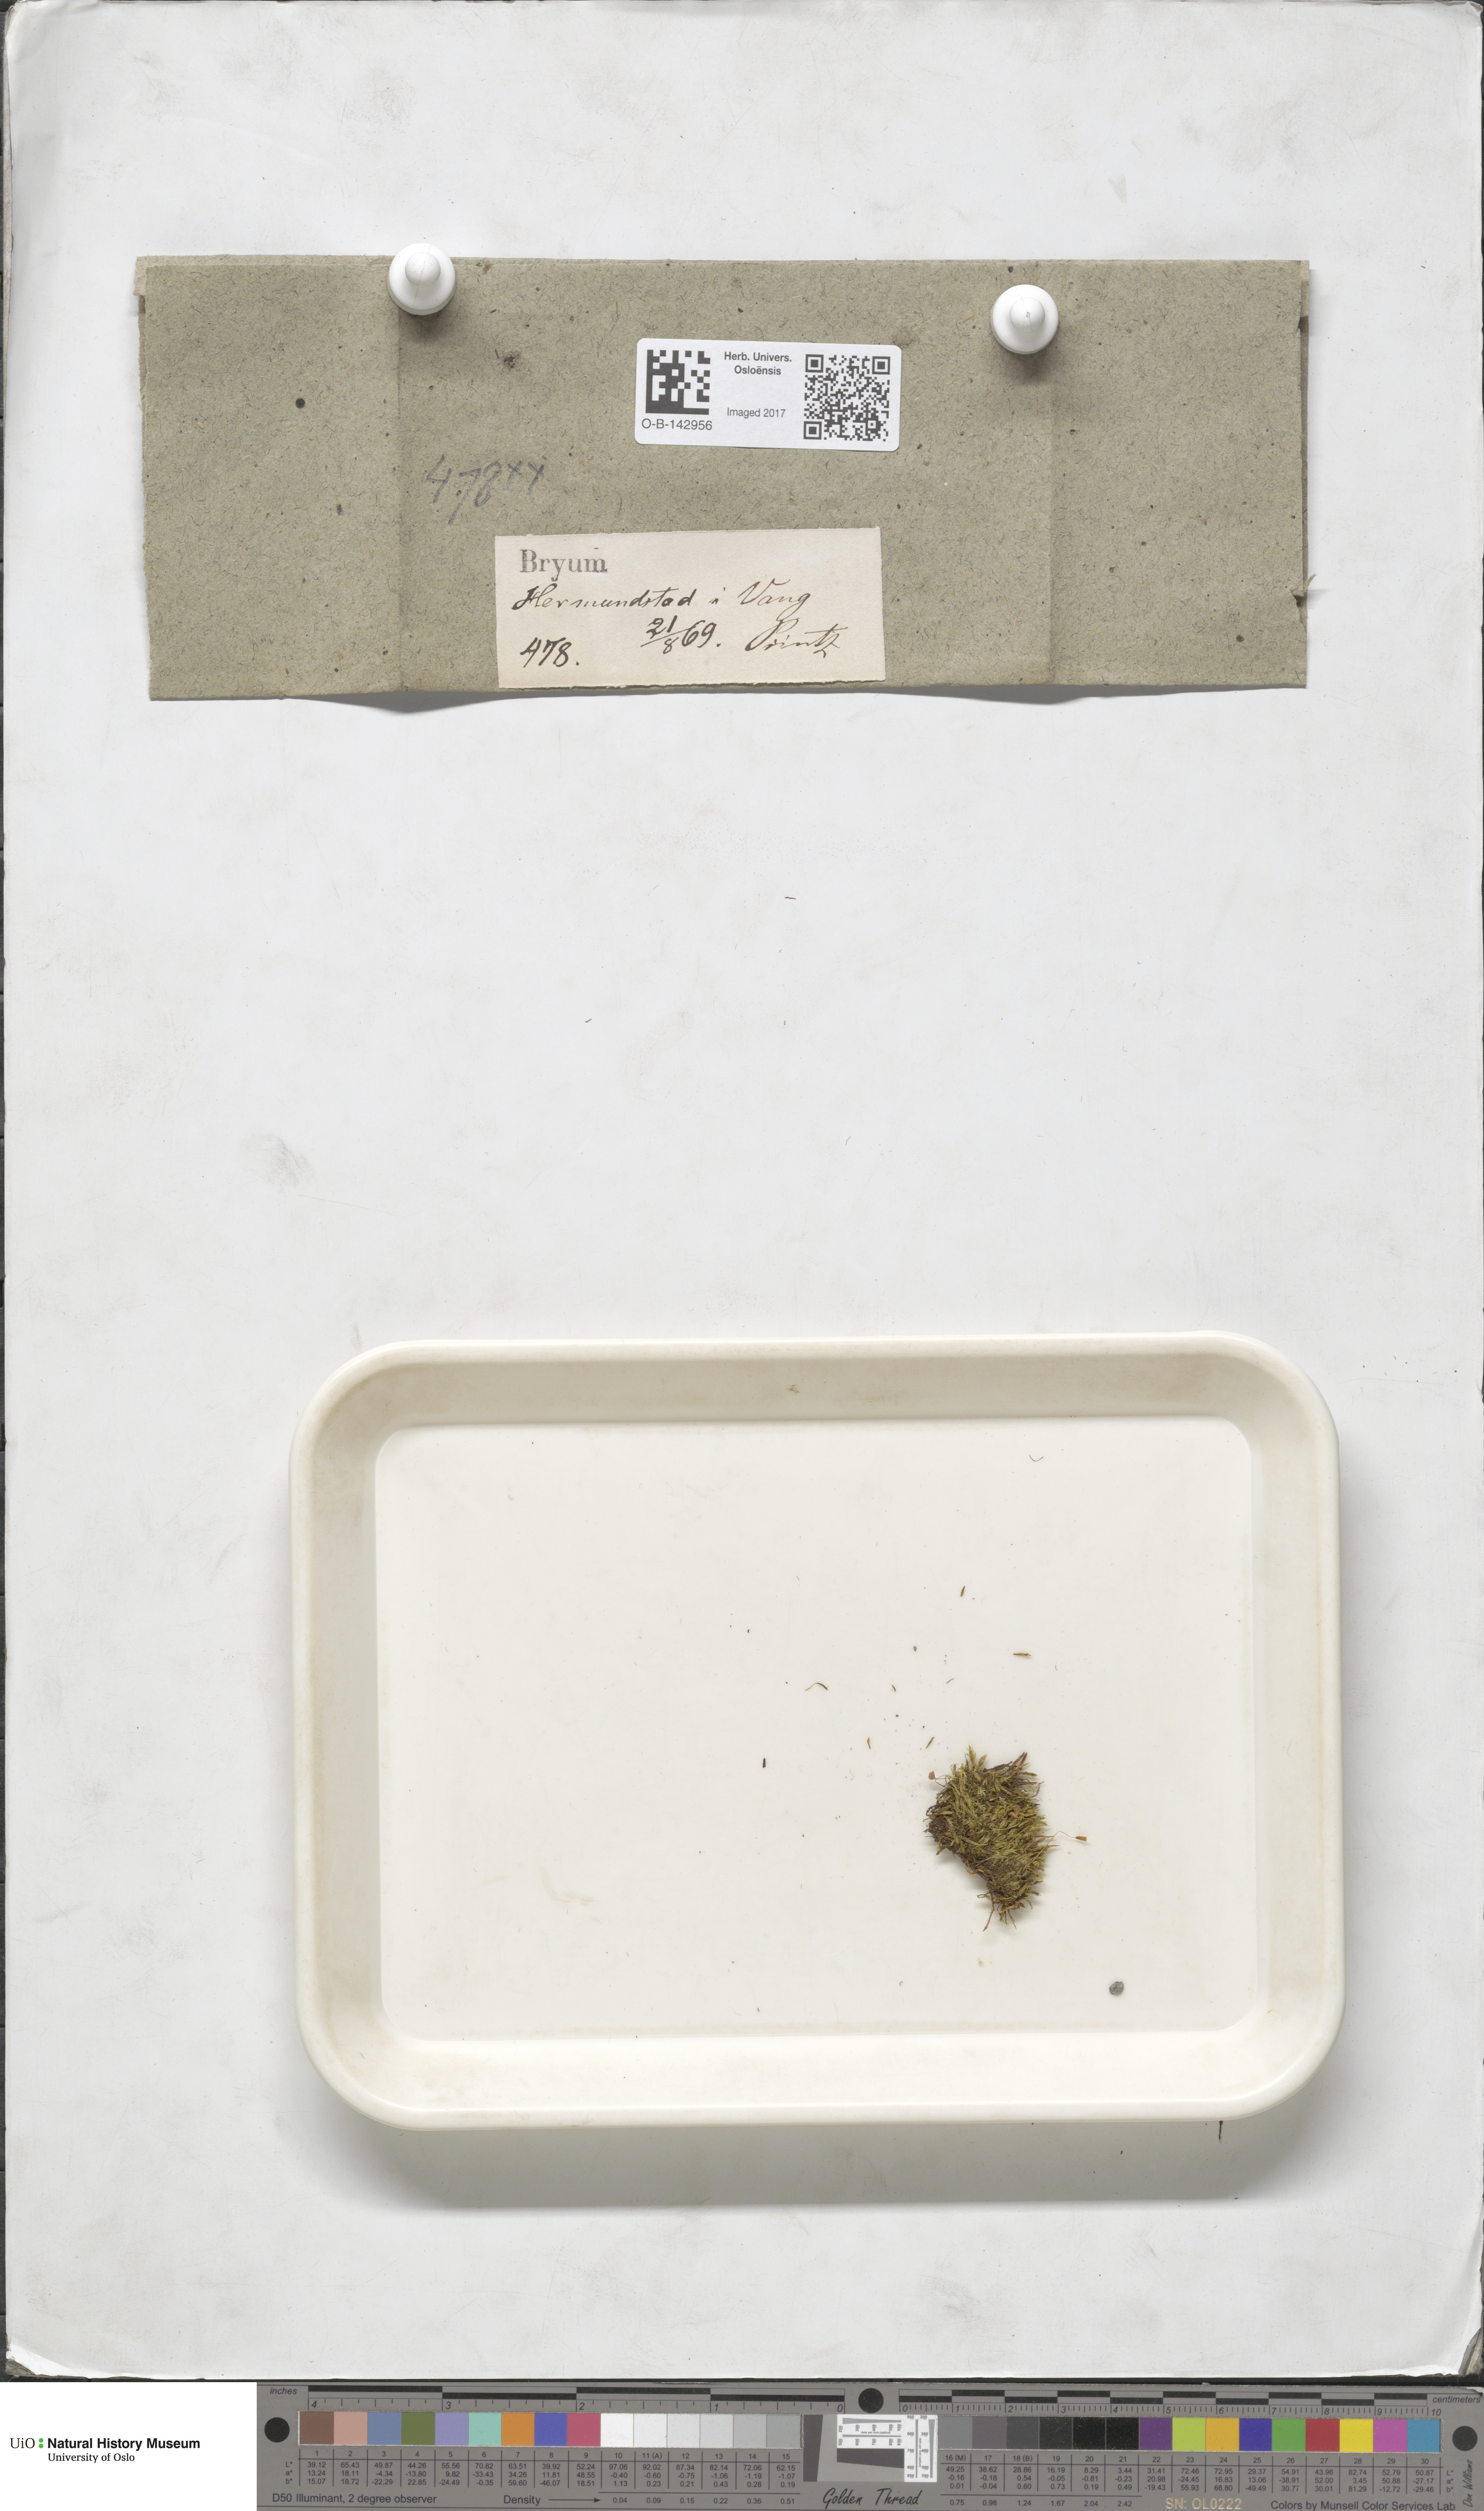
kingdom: Plantae
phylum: Bryophyta
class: Bryopsida
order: Bryales
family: Bryaceae
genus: Bryum
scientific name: Bryum
